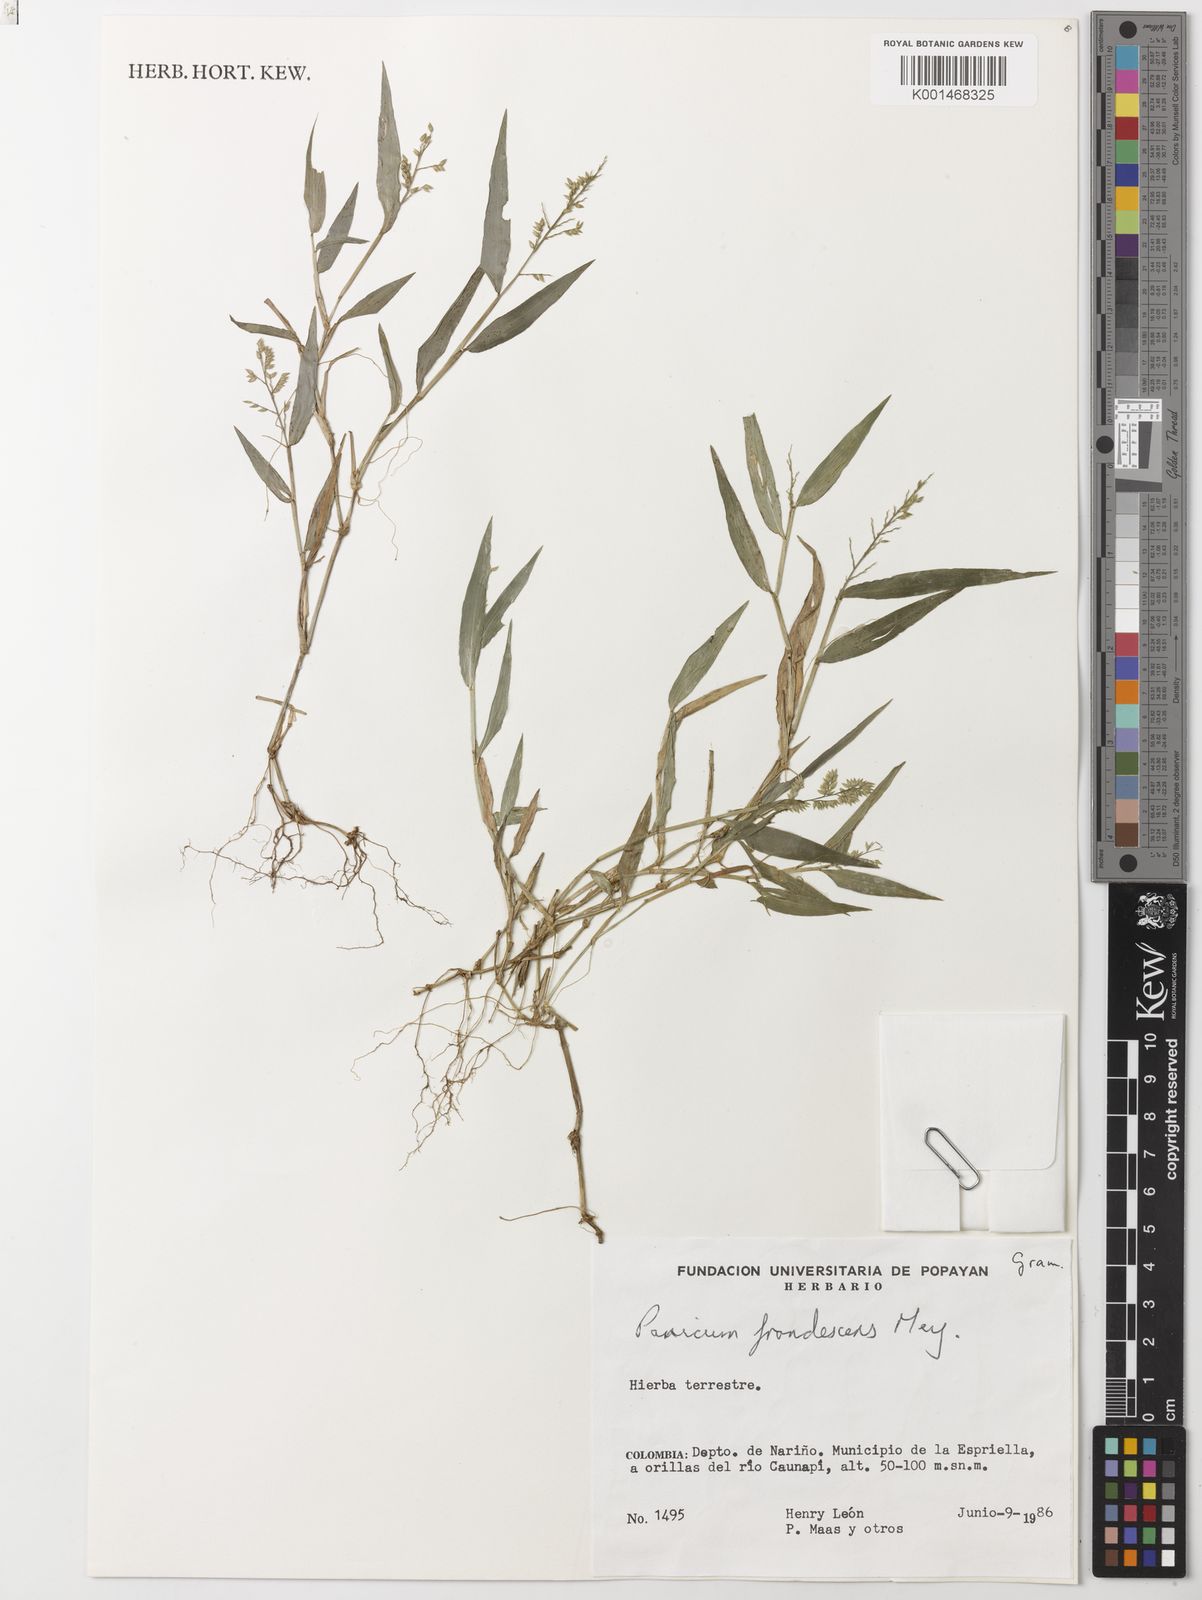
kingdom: Plantae
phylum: Tracheophyta
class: Liliopsida
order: Poales
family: Poaceae
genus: Ocellochloa
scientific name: Ocellochloa stolonifera
